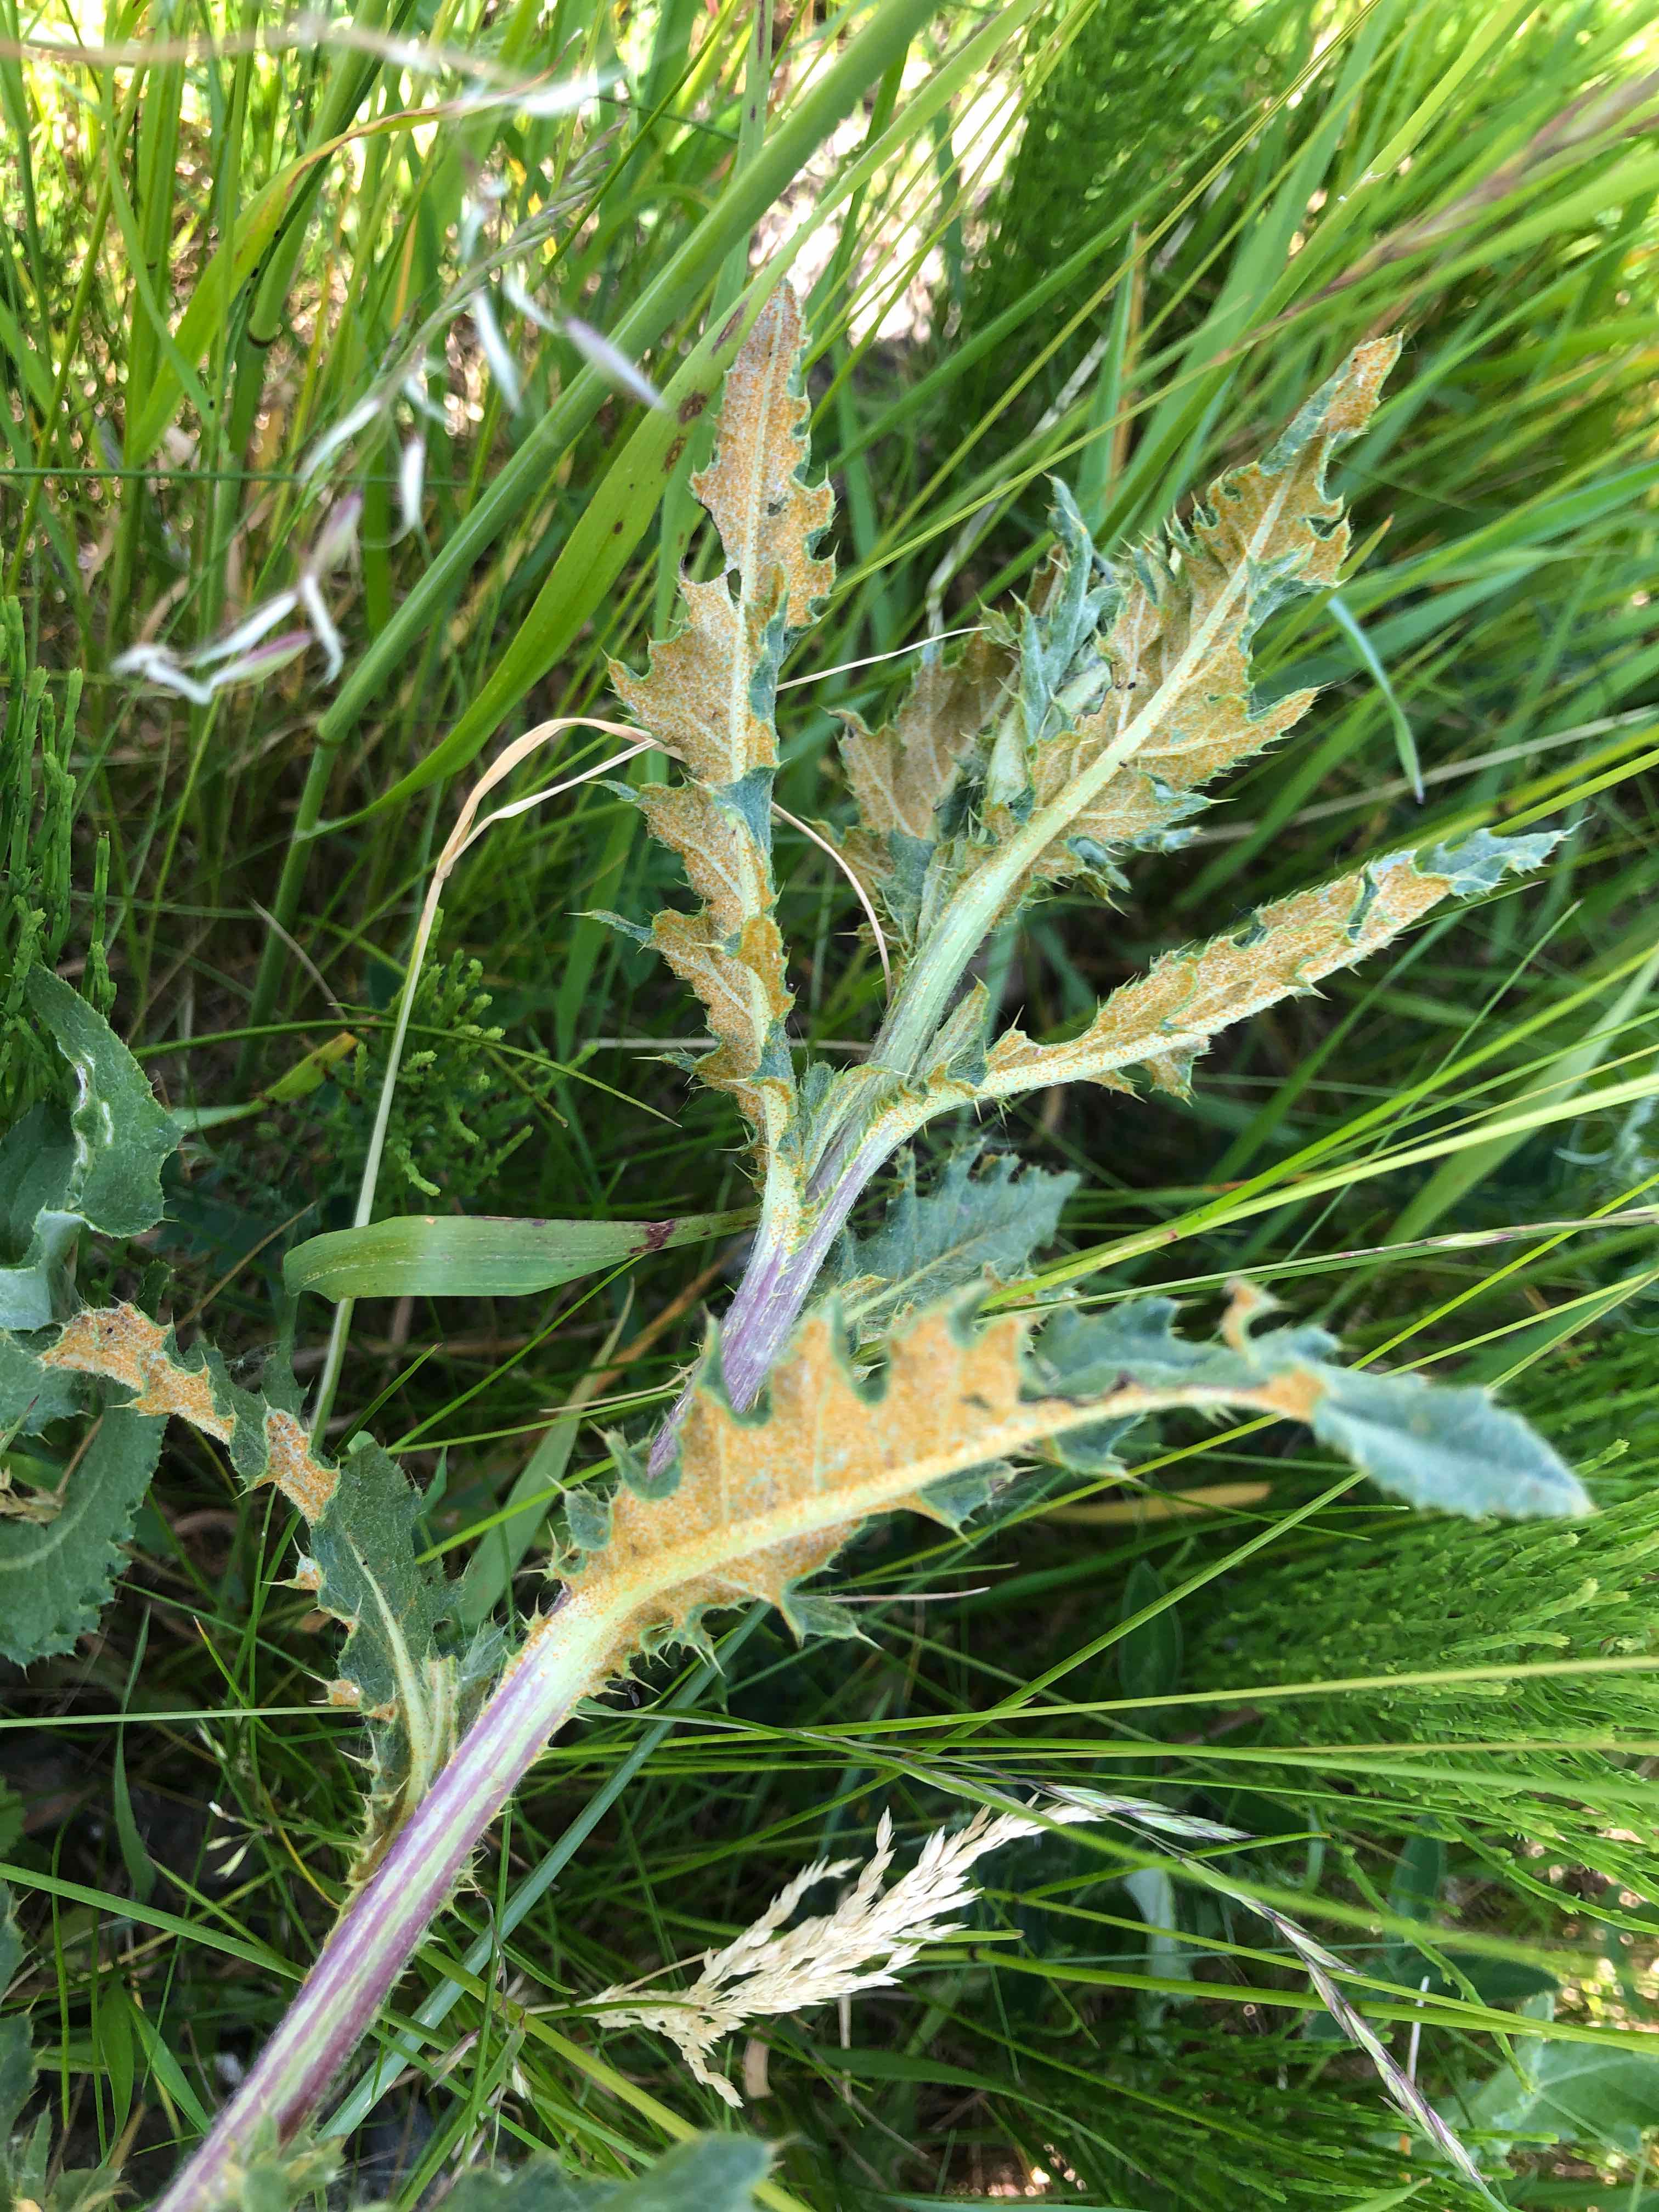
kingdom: Fungi
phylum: Basidiomycota
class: Pucciniomycetes
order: Pucciniales
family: Pucciniaceae
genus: Puccinia
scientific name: Puccinia suaveolens
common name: tidsel-tvecellerust
